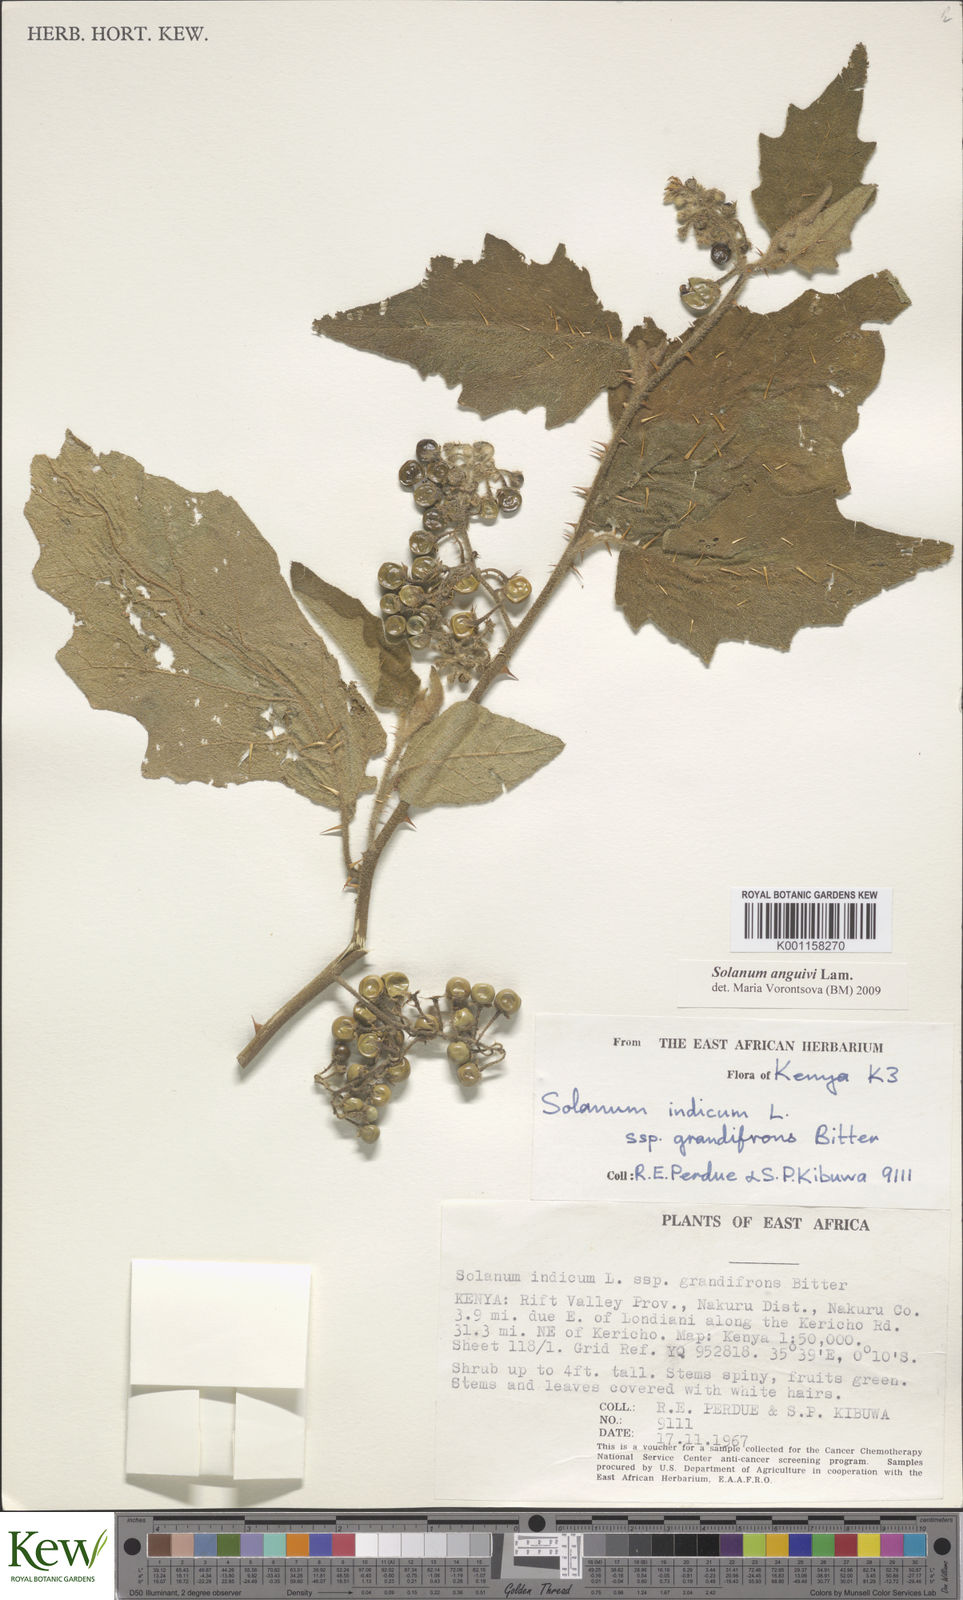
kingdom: Plantae
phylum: Tracheophyta
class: Magnoliopsida
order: Solanales
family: Solanaceae
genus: Solanum
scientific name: Solanum usambarense
